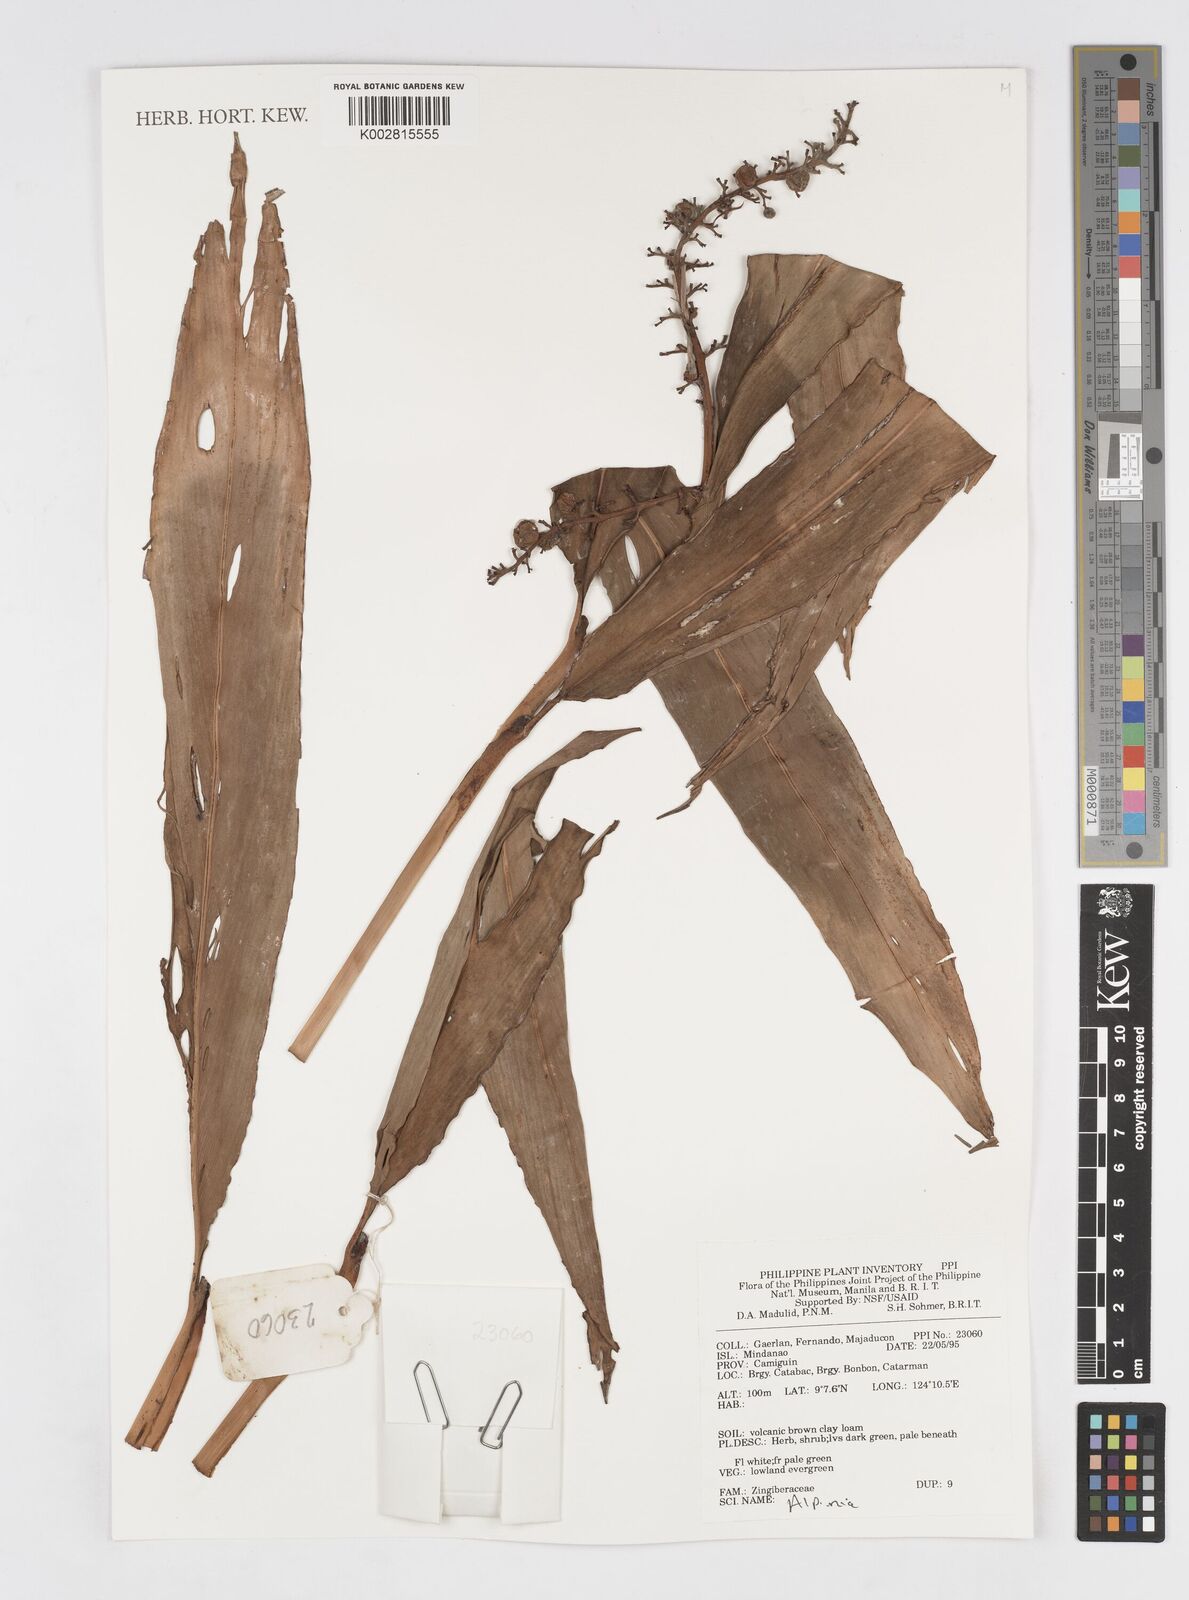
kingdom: Plantae
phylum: Tracheophyta
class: Liliopsida
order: Zingiberales
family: Zingiberaceae
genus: Alpinia
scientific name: Alpinia
